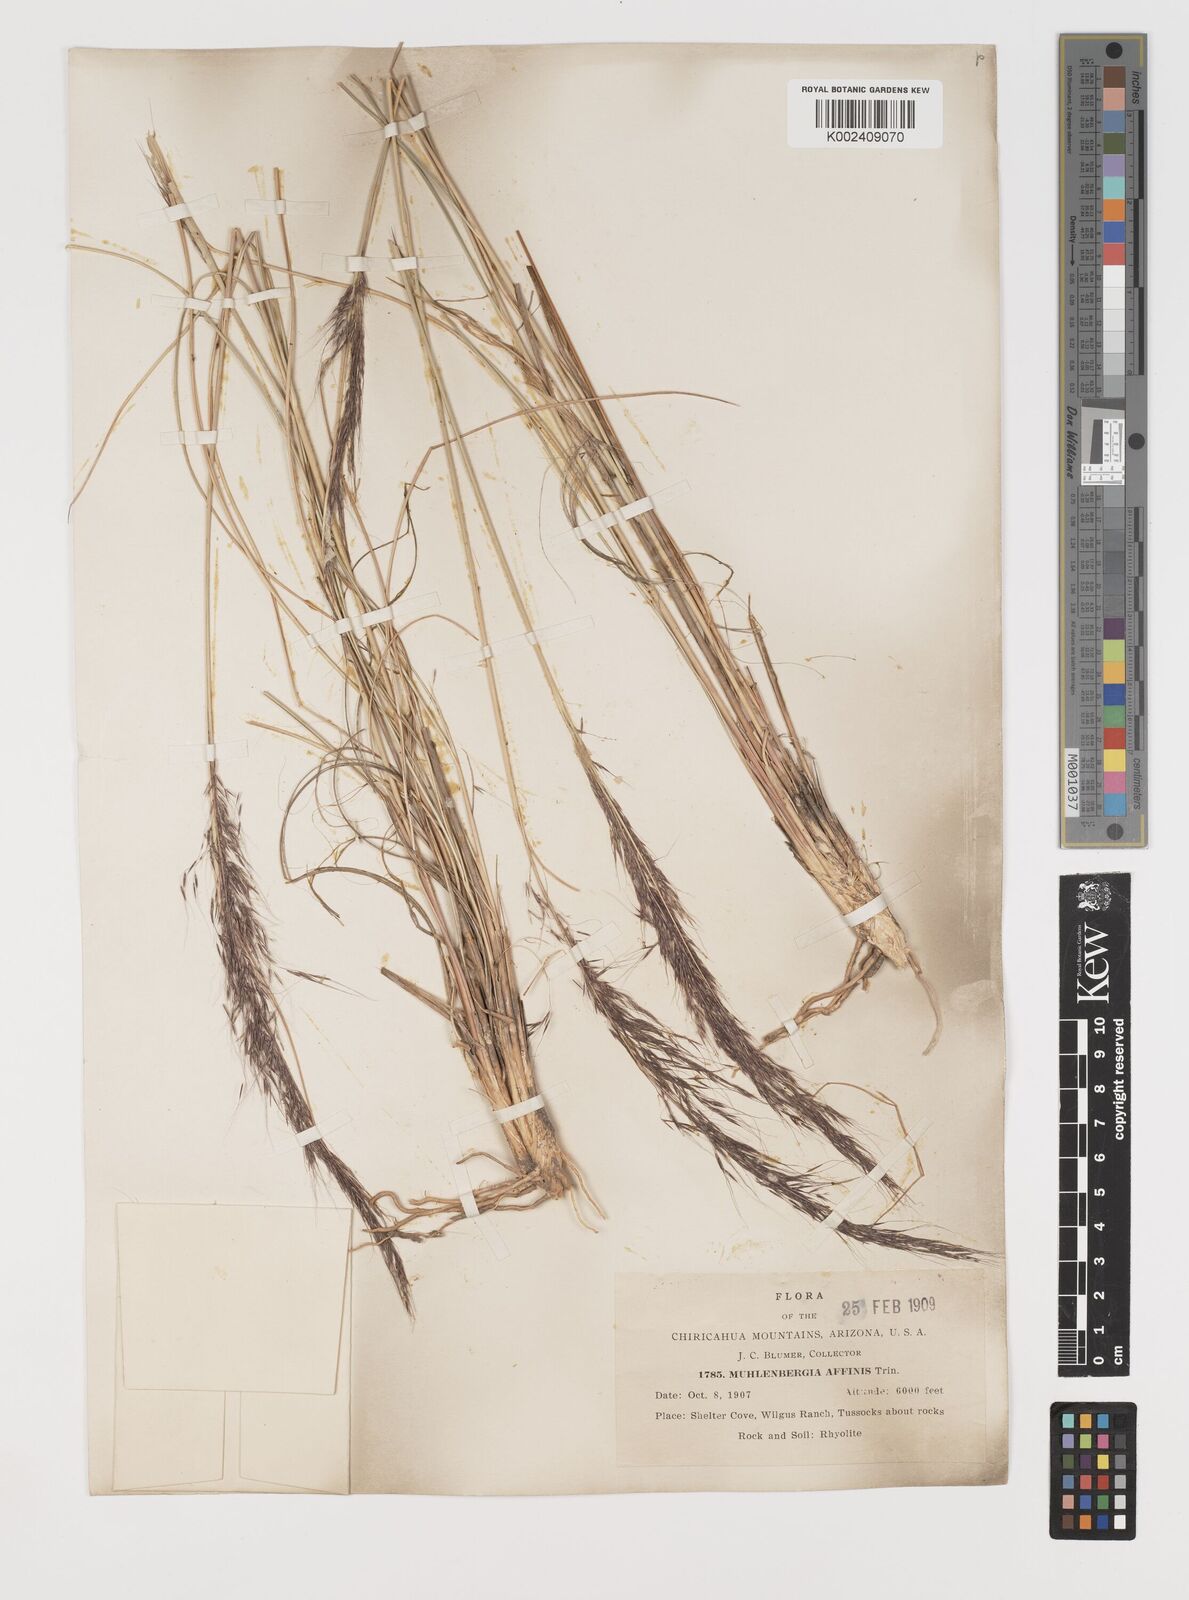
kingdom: Plantae
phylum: Tracheophyta
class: Liliopsida
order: Poales
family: Poaceae
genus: Muhlenbergia
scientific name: Muhlenbergia rigida
